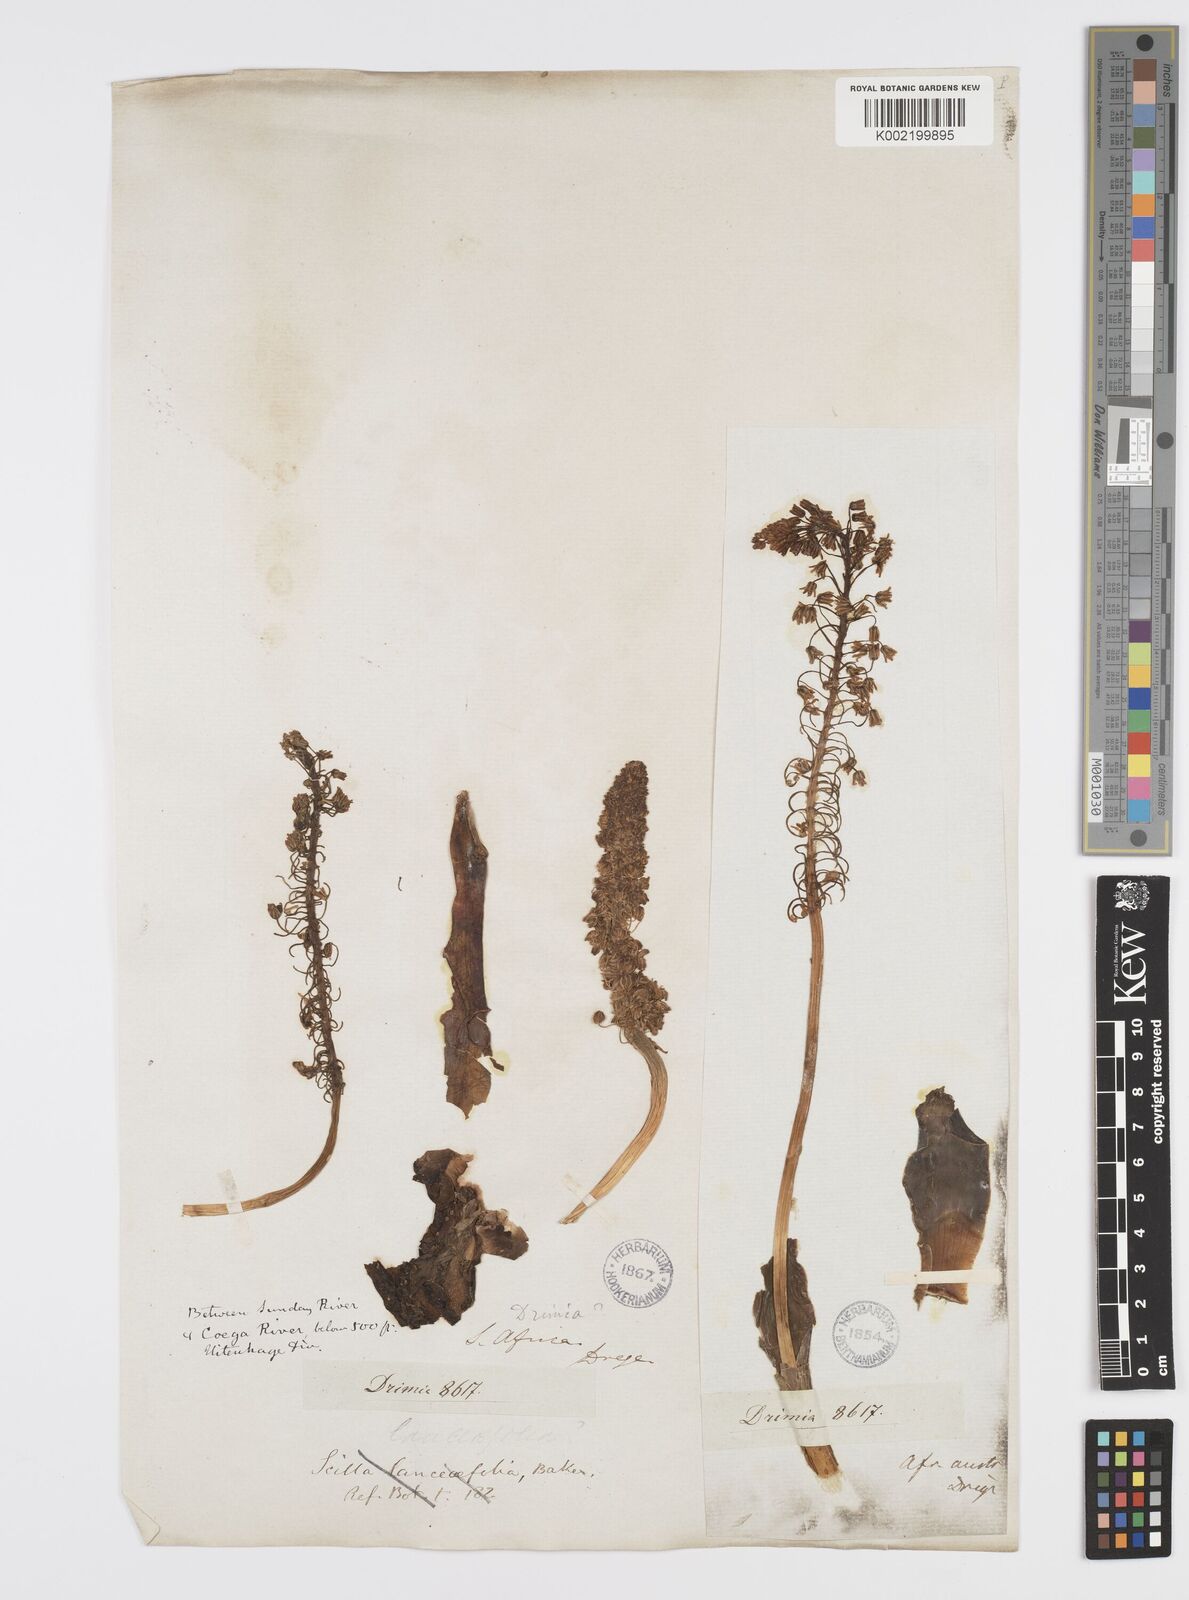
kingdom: Plantae
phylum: Tracheophyta
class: Liliopsida
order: Asparagales
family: Asparagaceae
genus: Ledebouria
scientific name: Ledebouria revoluta
